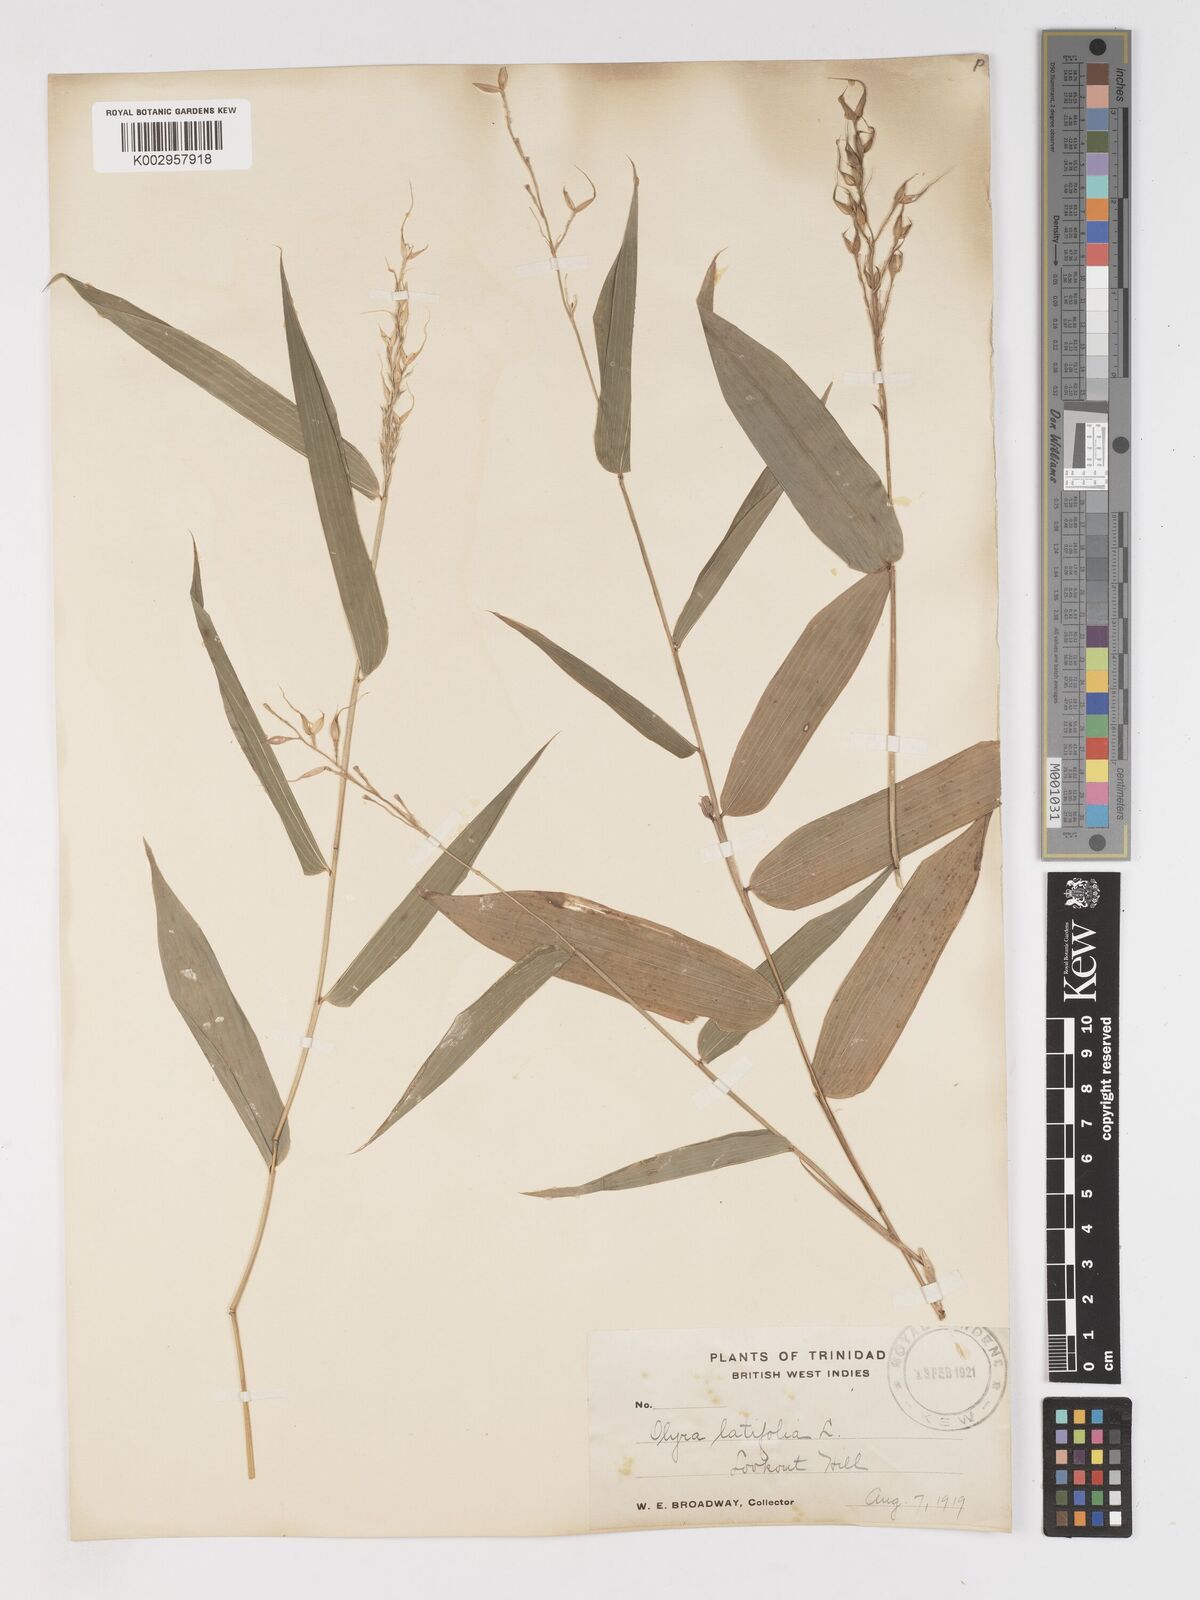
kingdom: Plantae
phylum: Tracheophyta
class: Liliopsida
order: Poales
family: Poaceae
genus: Olyra
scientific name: Olyra latifolia
